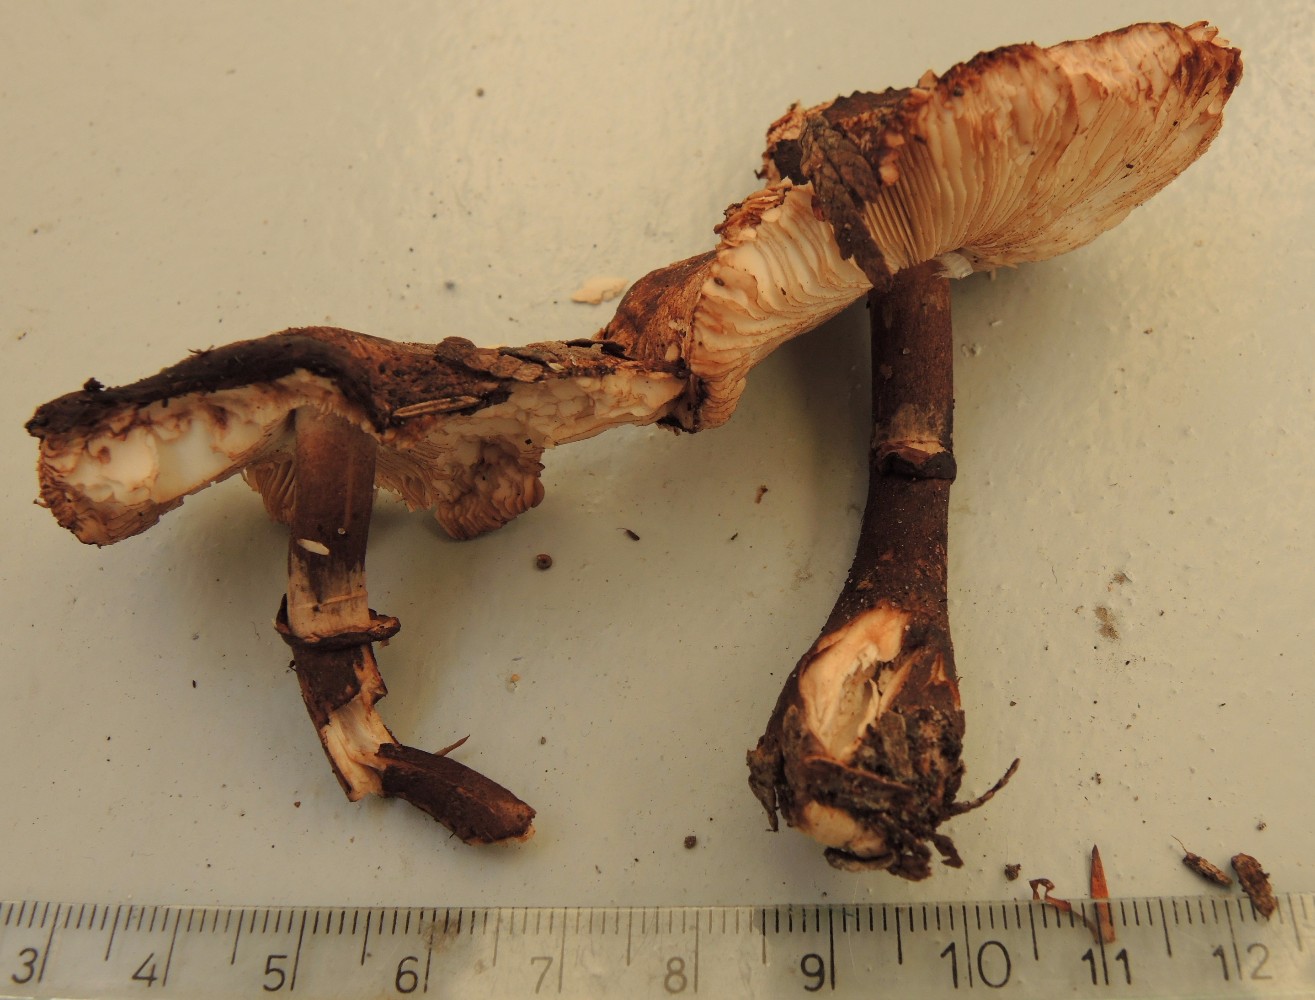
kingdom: Fungi
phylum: Basidiomycota
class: Agaricomycetes
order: Agaricales
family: Agaricaceae
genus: Leucoagaricus
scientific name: Leucoagaricus badhamii
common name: rødmende silkehat
